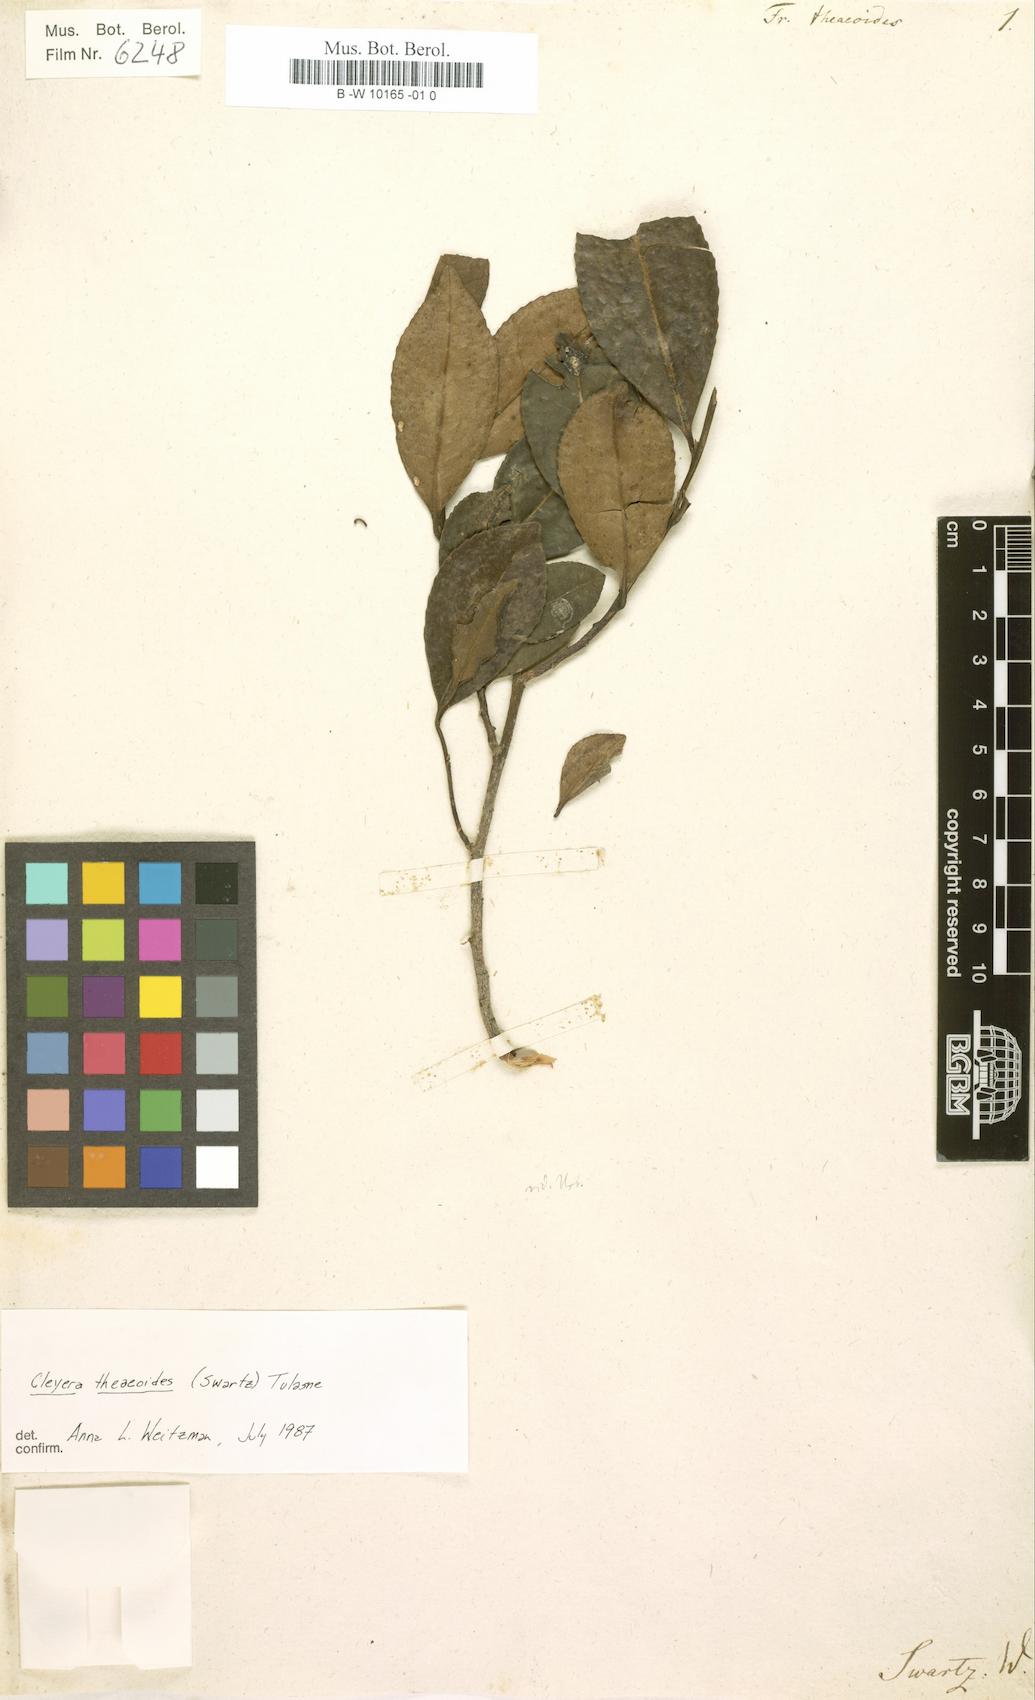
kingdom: Plantae
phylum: Tracheophyta
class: Magnoliopsida
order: Ericales
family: Pentaphylacaceae
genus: Freziera
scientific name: Freziera
